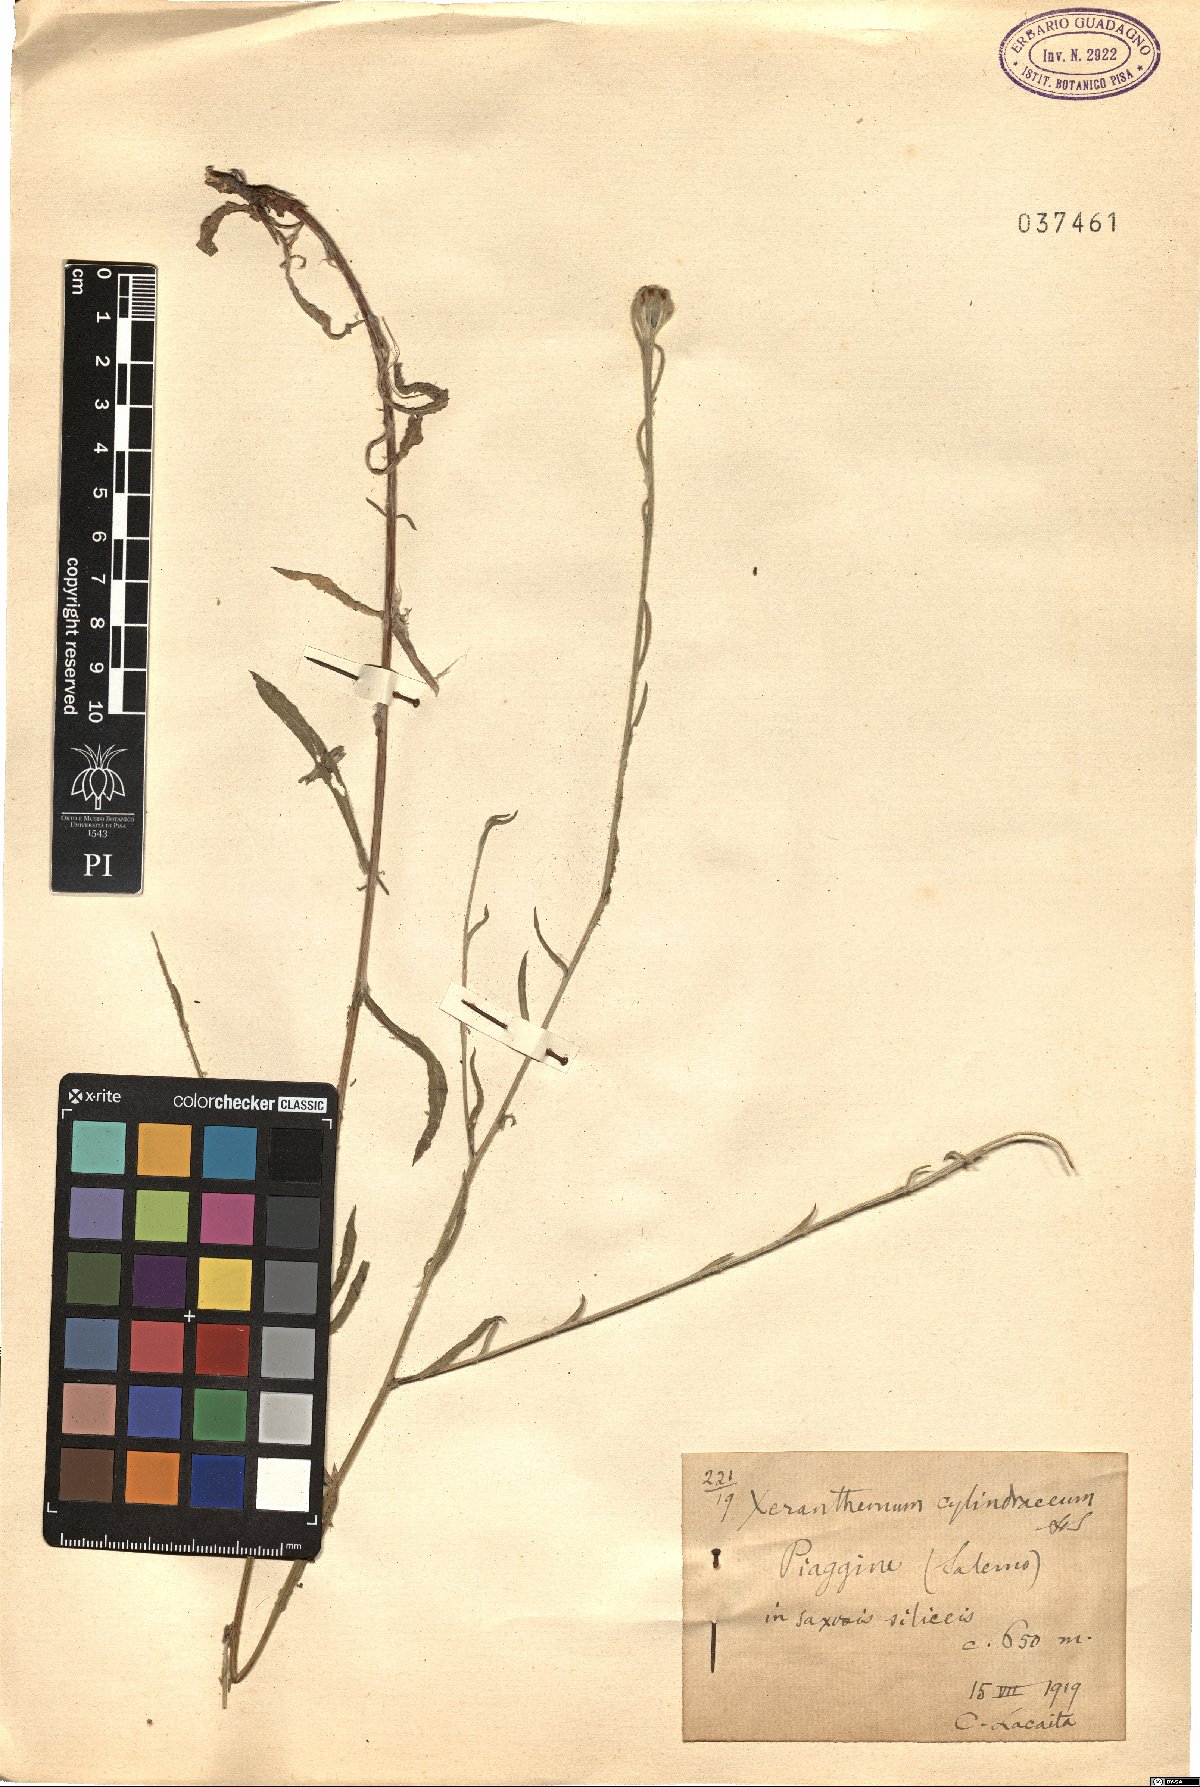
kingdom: Plantae
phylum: Tracheophyta
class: Magnoliopsida
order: Asterales
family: Asteraceae
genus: Xeranthemum
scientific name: Xeranthemum cylindraceum
